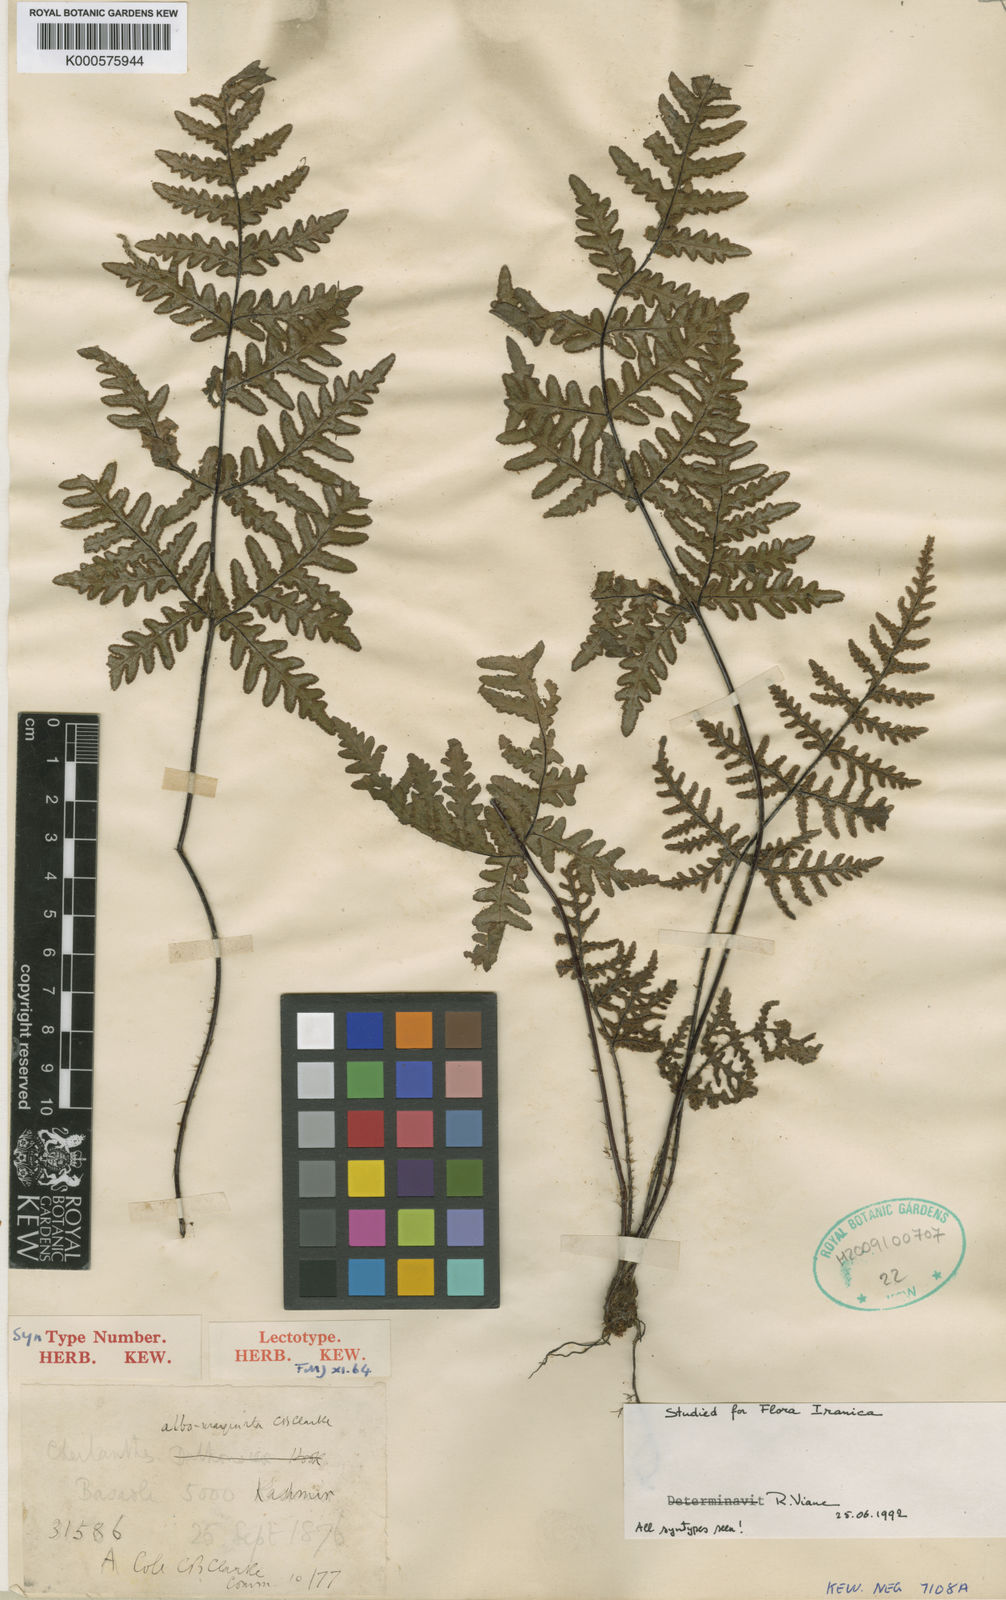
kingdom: Plantae
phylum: Tracheophyta
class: Polypodiopsida
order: Polypodiales
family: Pteridaceae
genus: Aleuritopteris
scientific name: Aleuritopteris albomarginata
